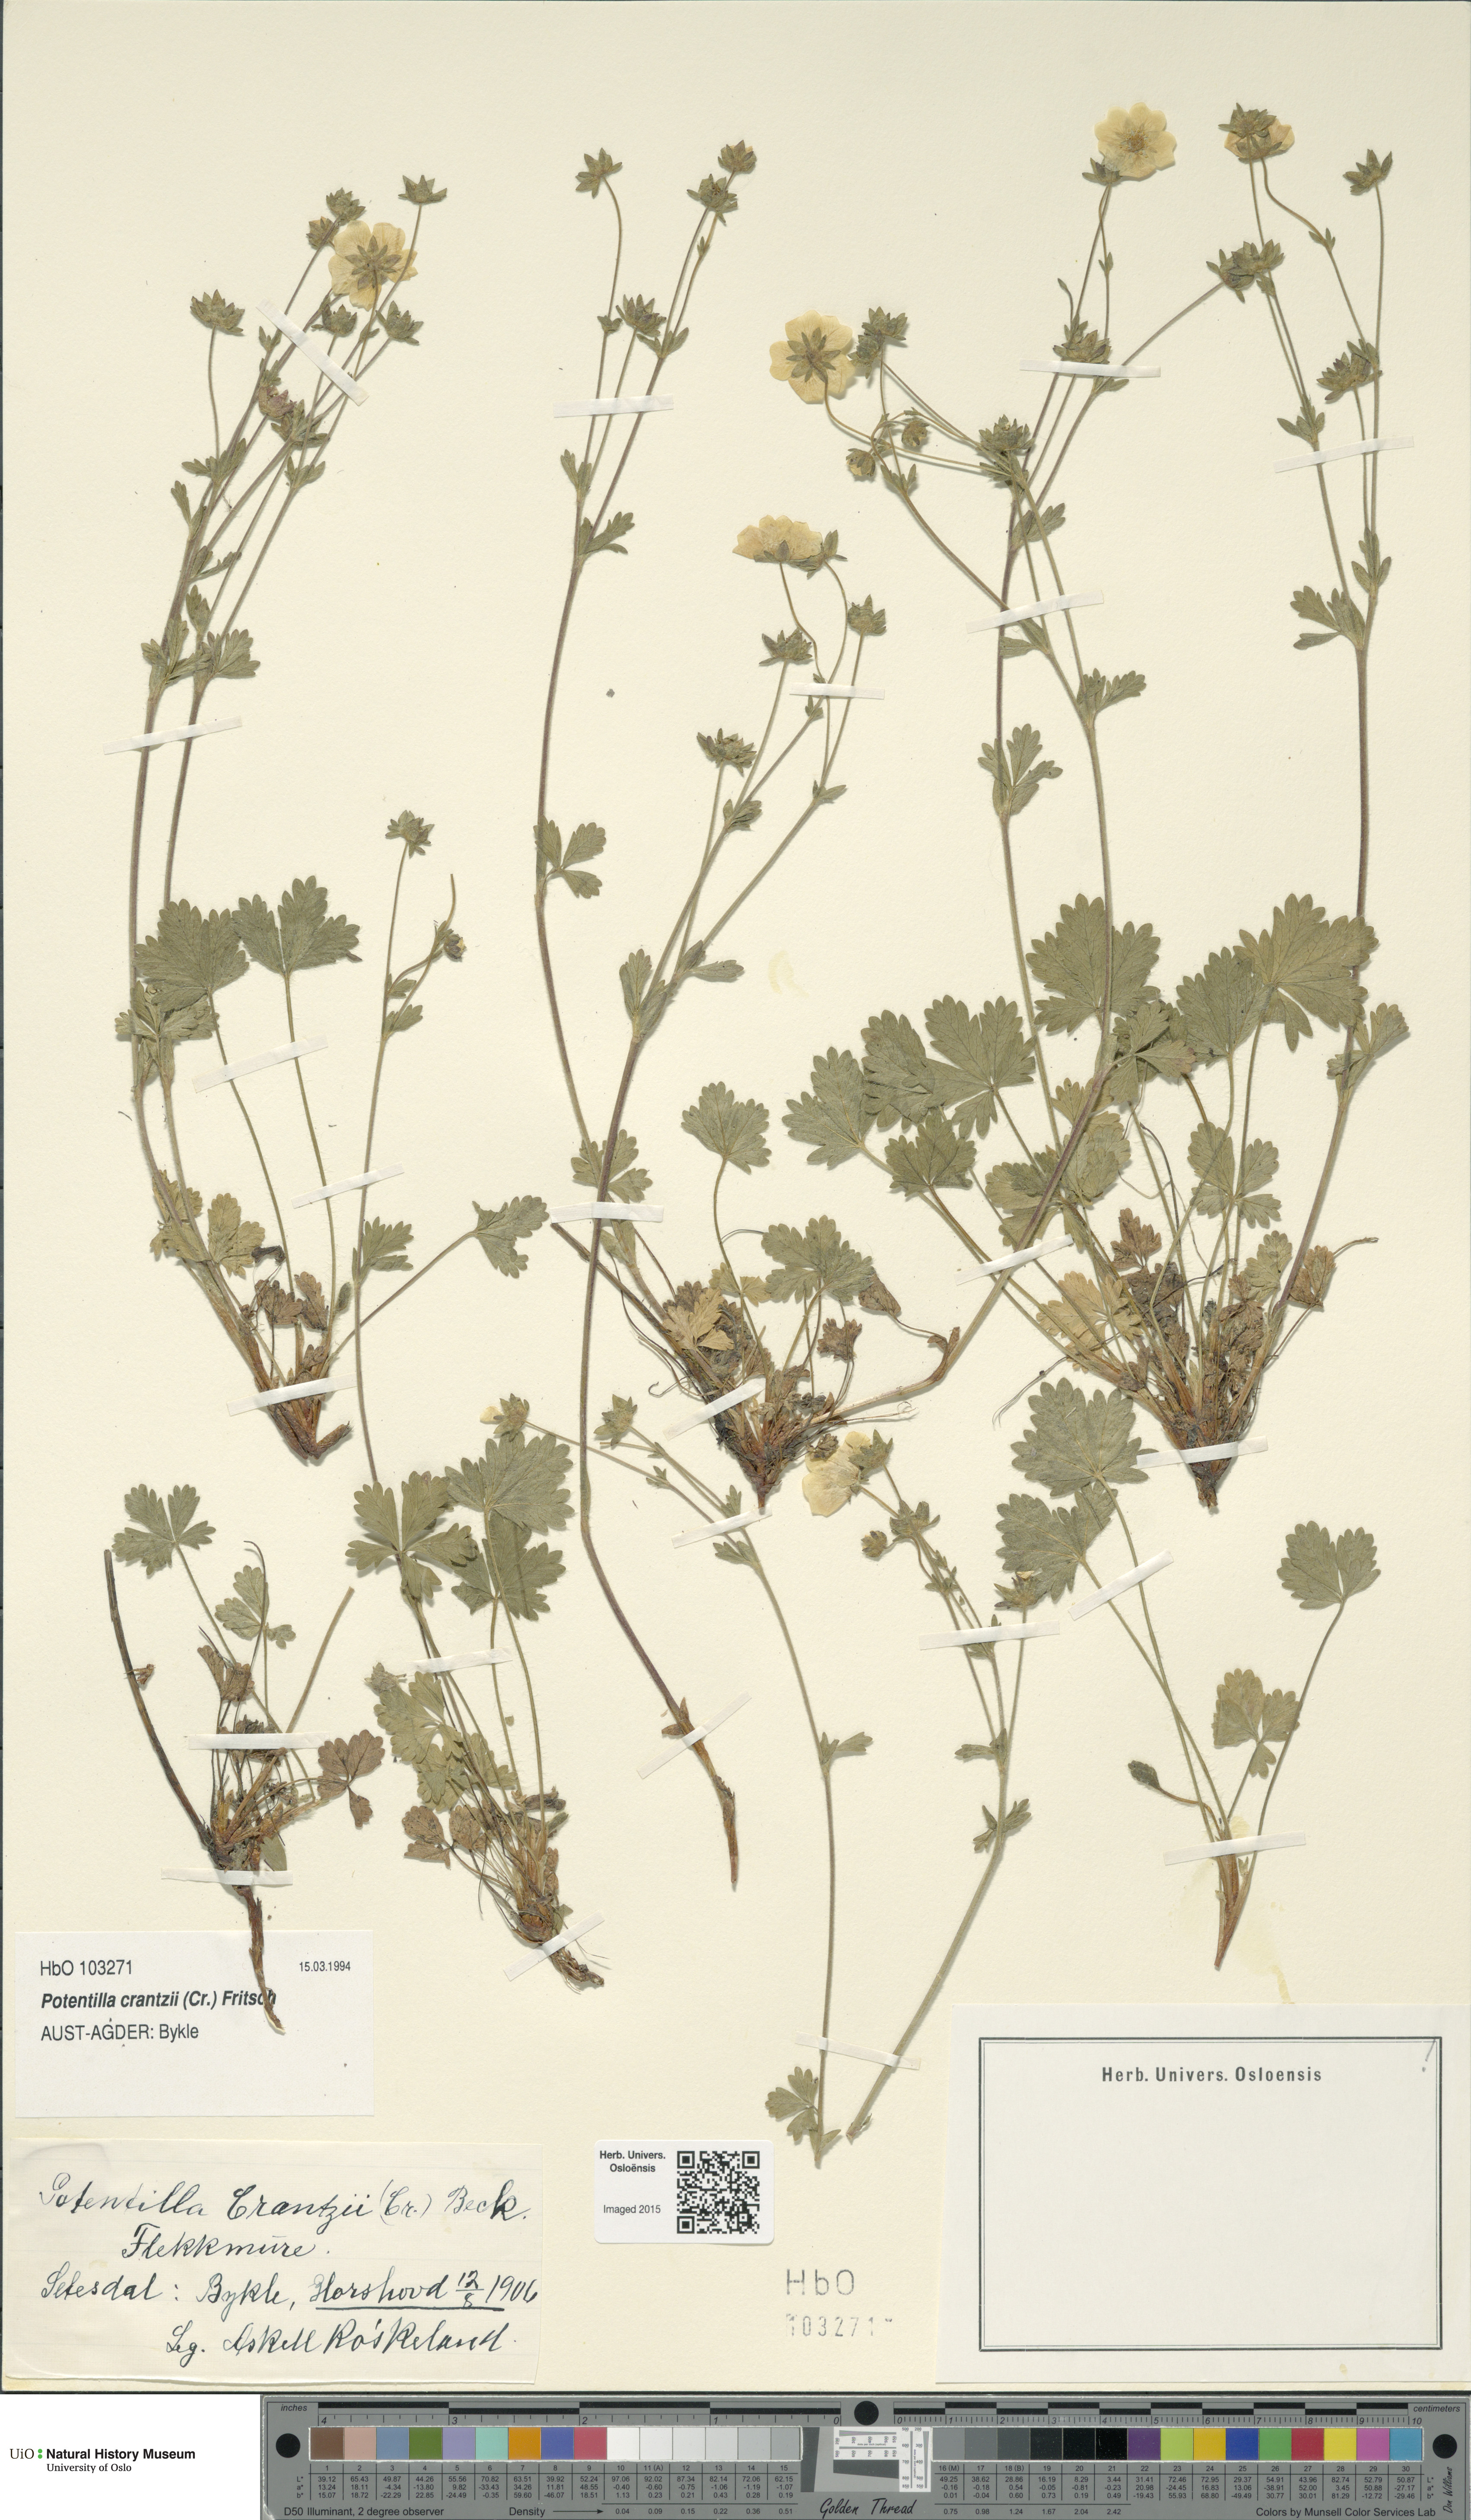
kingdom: Plantae
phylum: Tracheophyta
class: Magnoliopsida
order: Rosales
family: Rosaceae
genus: Potentilla
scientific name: Potentilla crantzii
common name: Alpine cinquefoil
